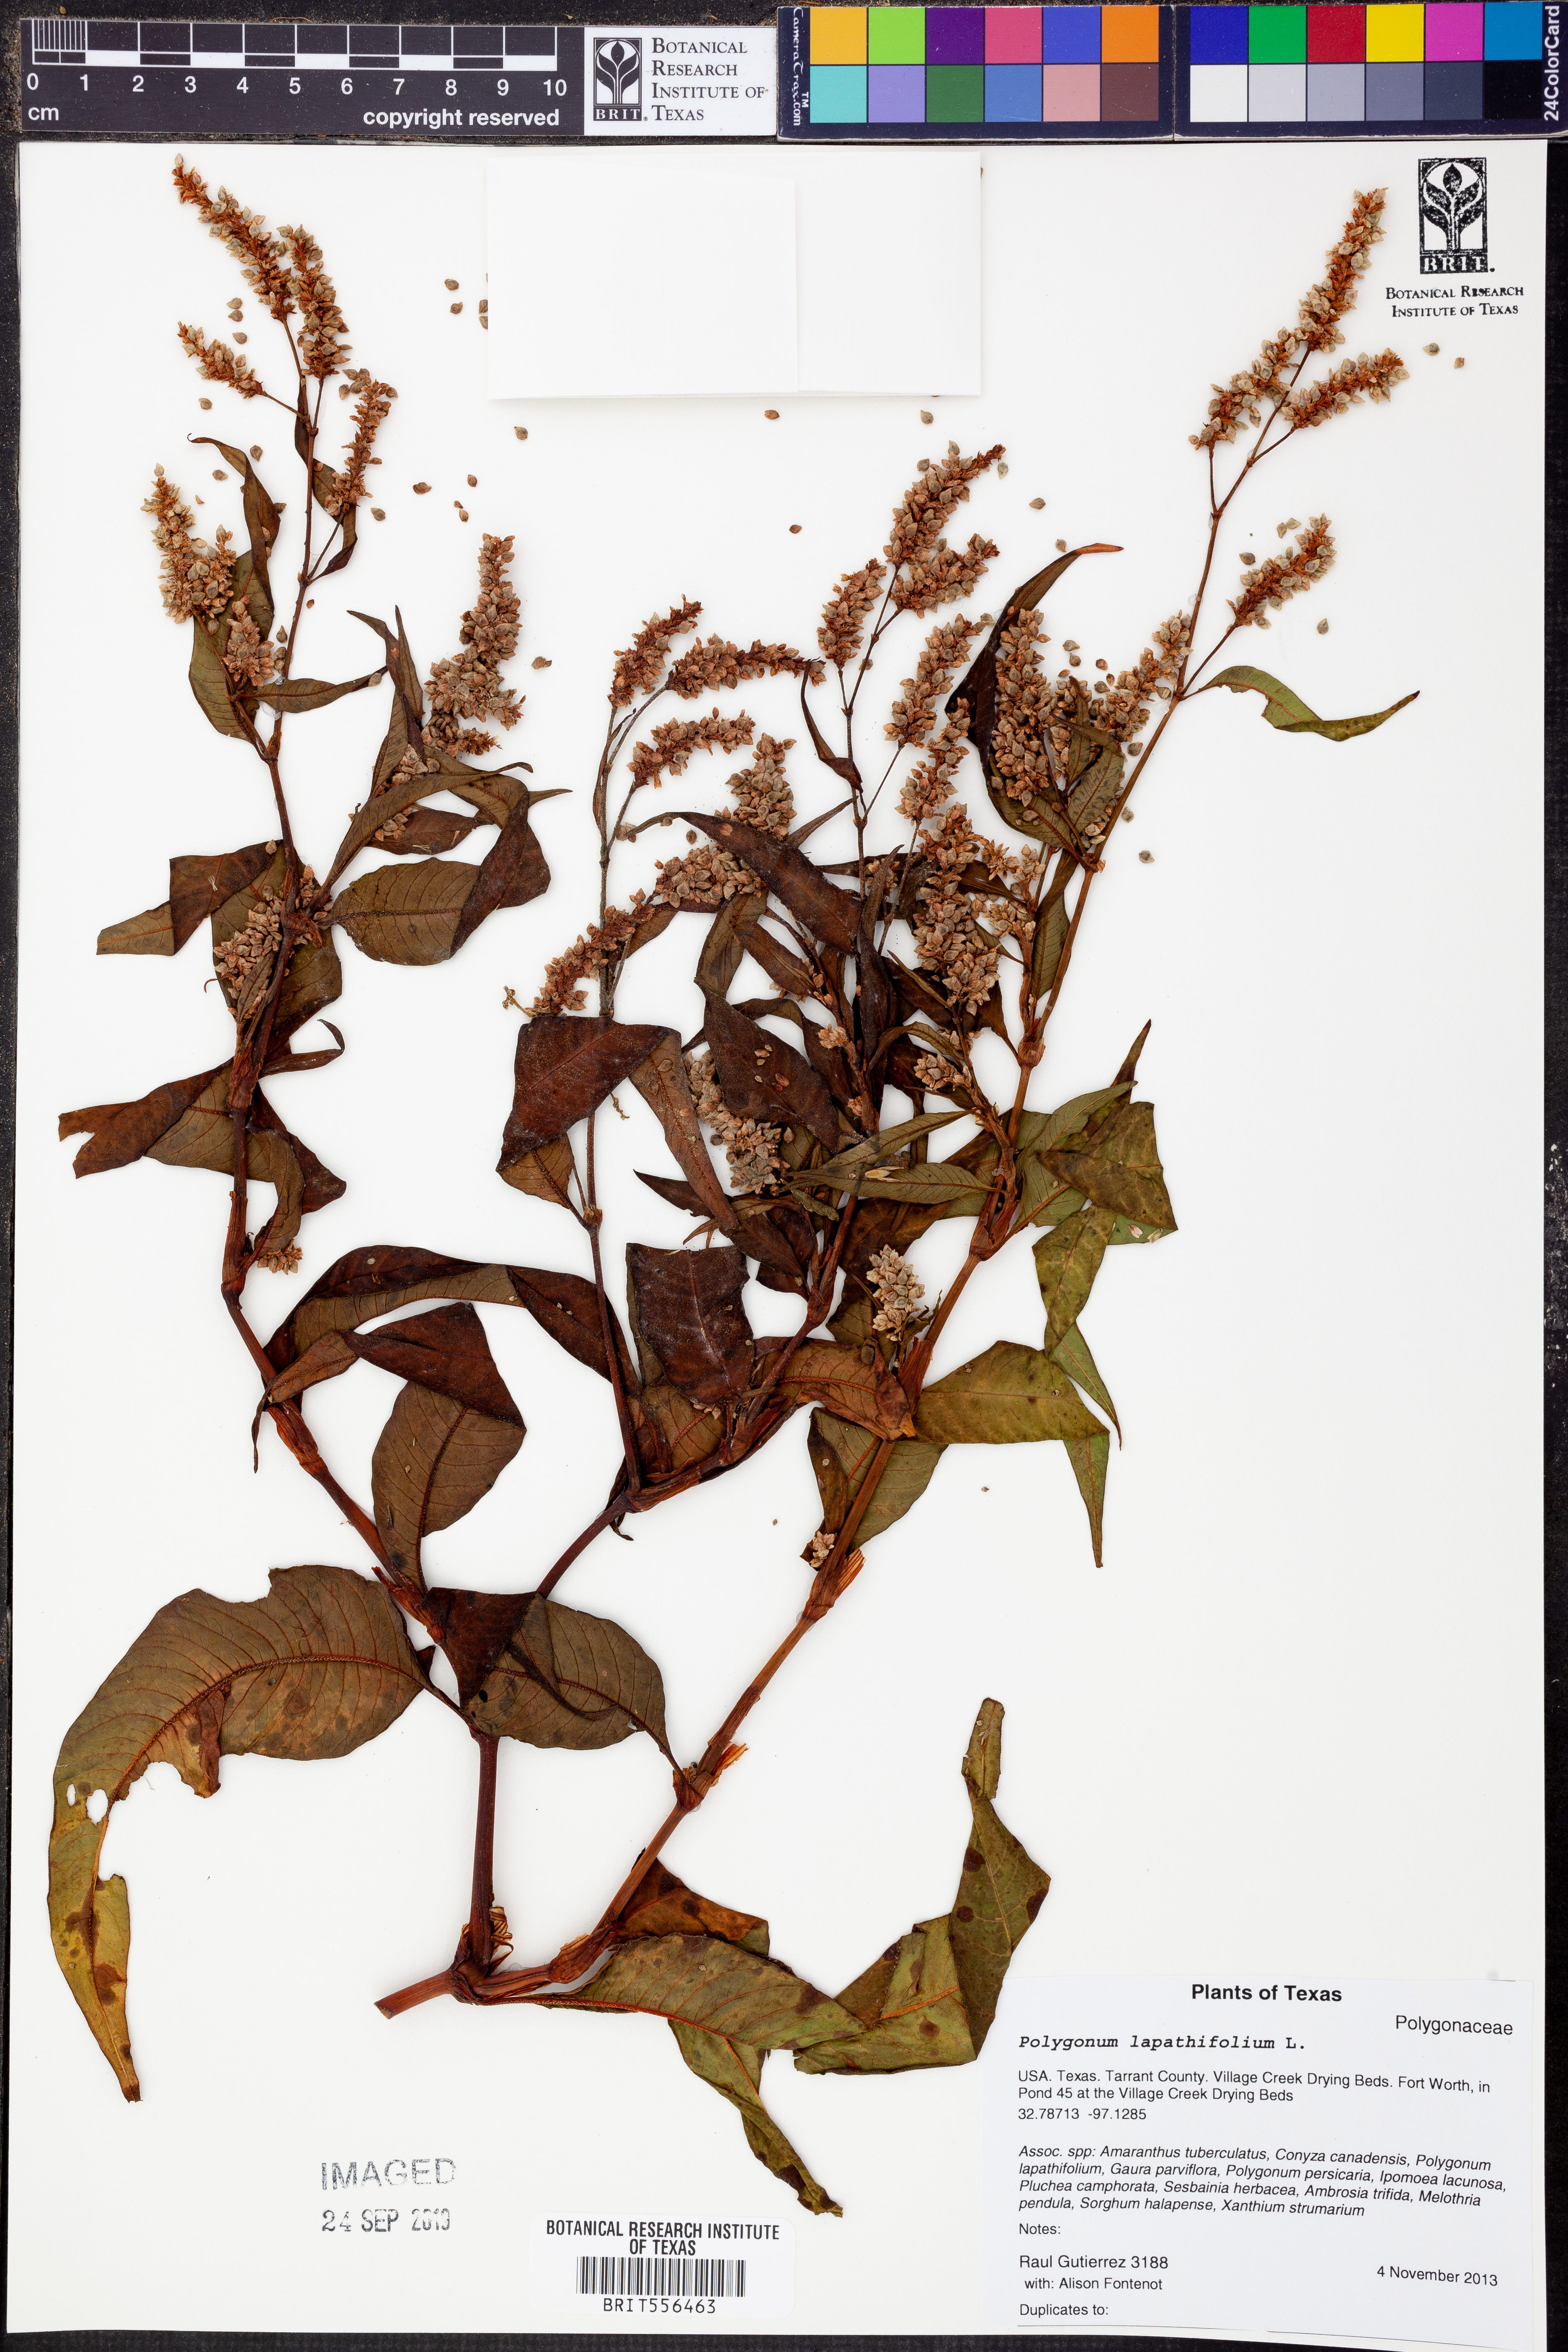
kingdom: Plantae
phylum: Tracheophyta
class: Magnoliopsida
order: Caryophyllales
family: Polygonaceae
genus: Persicaria
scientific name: Persicaria lapathifolia
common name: Curlytop knotweed
